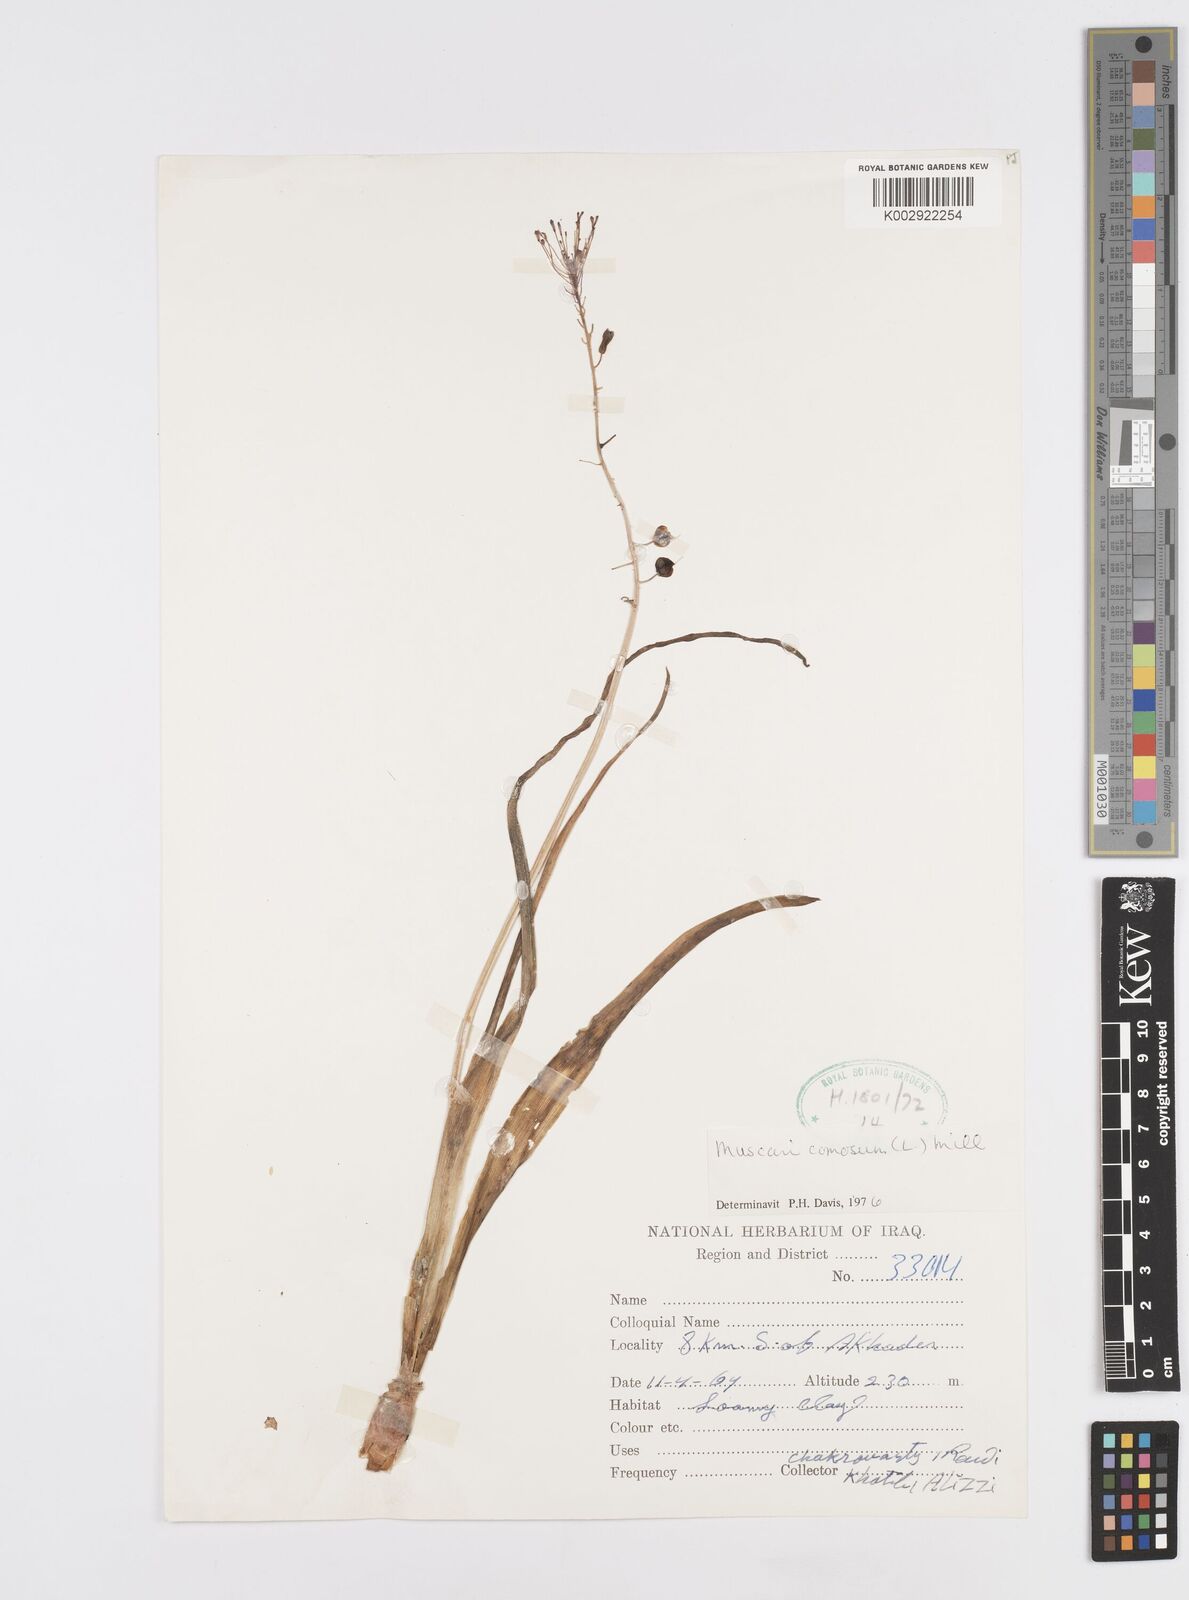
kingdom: Plantae
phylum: Tracheophyta
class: Liliopsida
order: Asparagales
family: Asparagaceae
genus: Muscari
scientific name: Muscari comosum
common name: Tassel hyacinth
